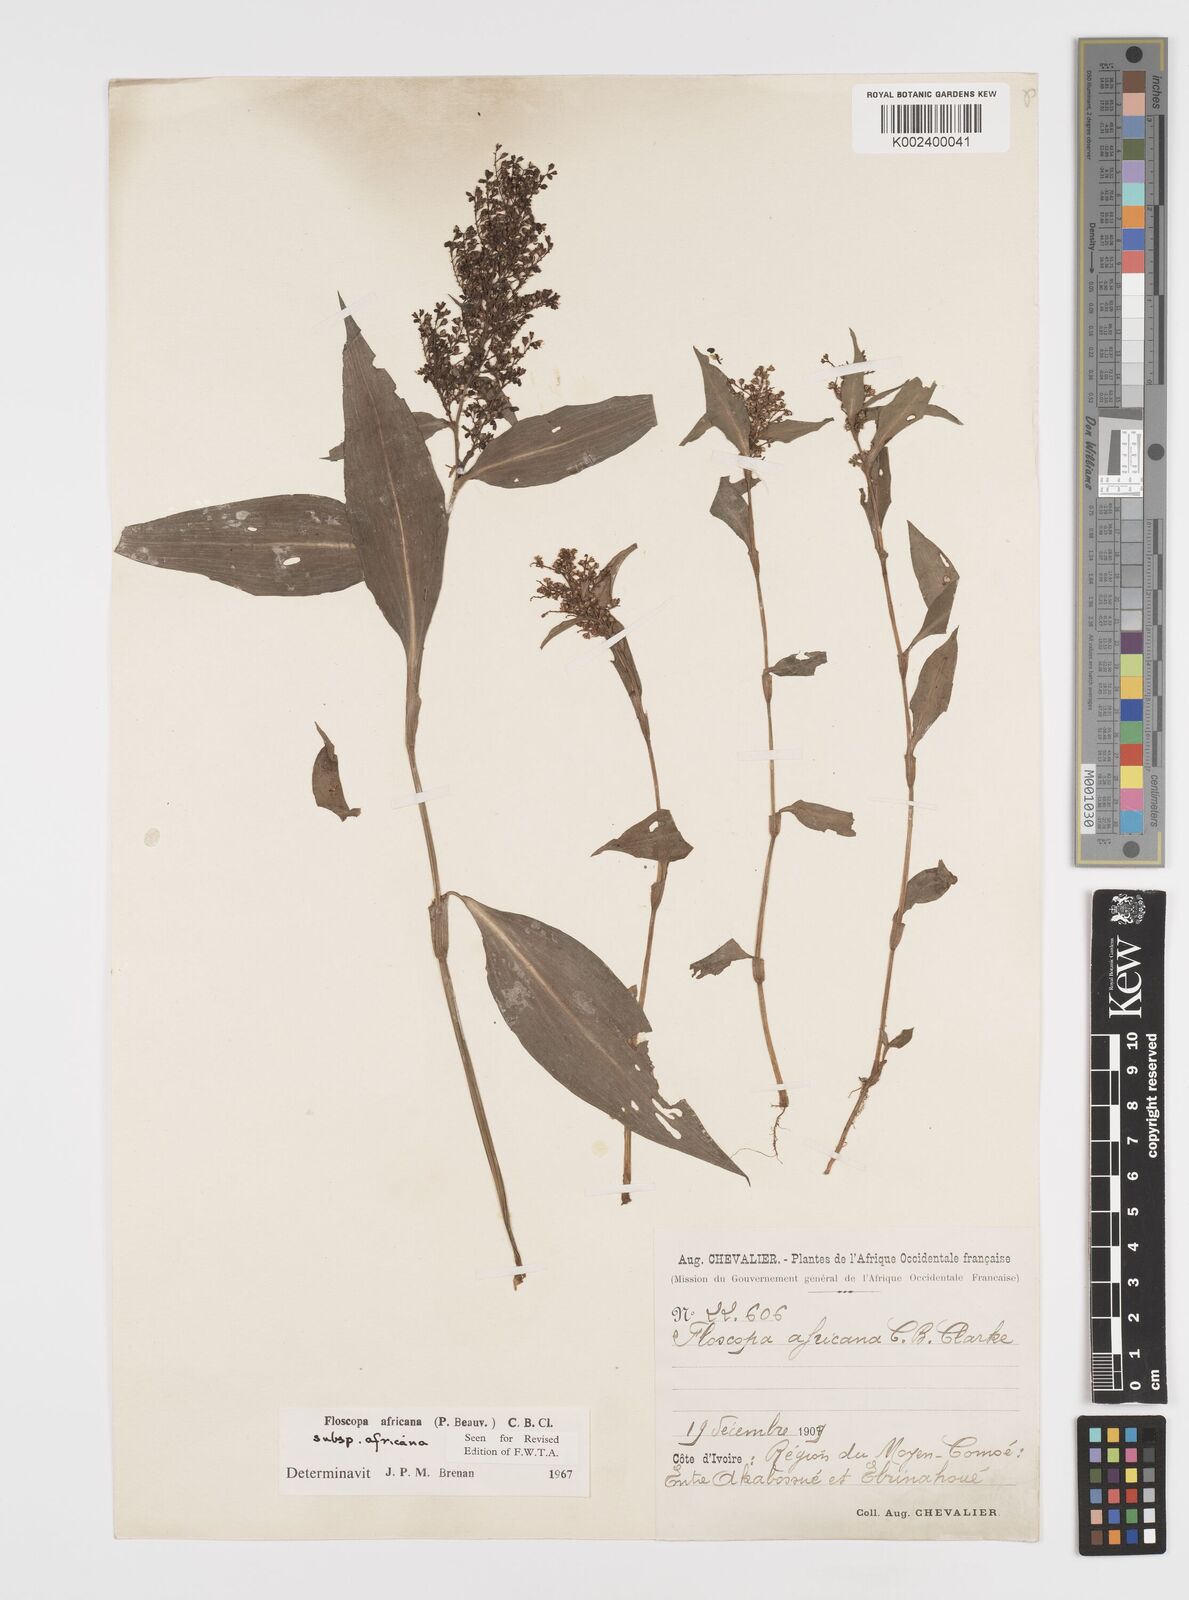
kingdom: Plantae
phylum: Tracheophyta
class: Liliopsida
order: Commelinales
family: Commelinaceae
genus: Floscopa
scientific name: Floscopa africana
